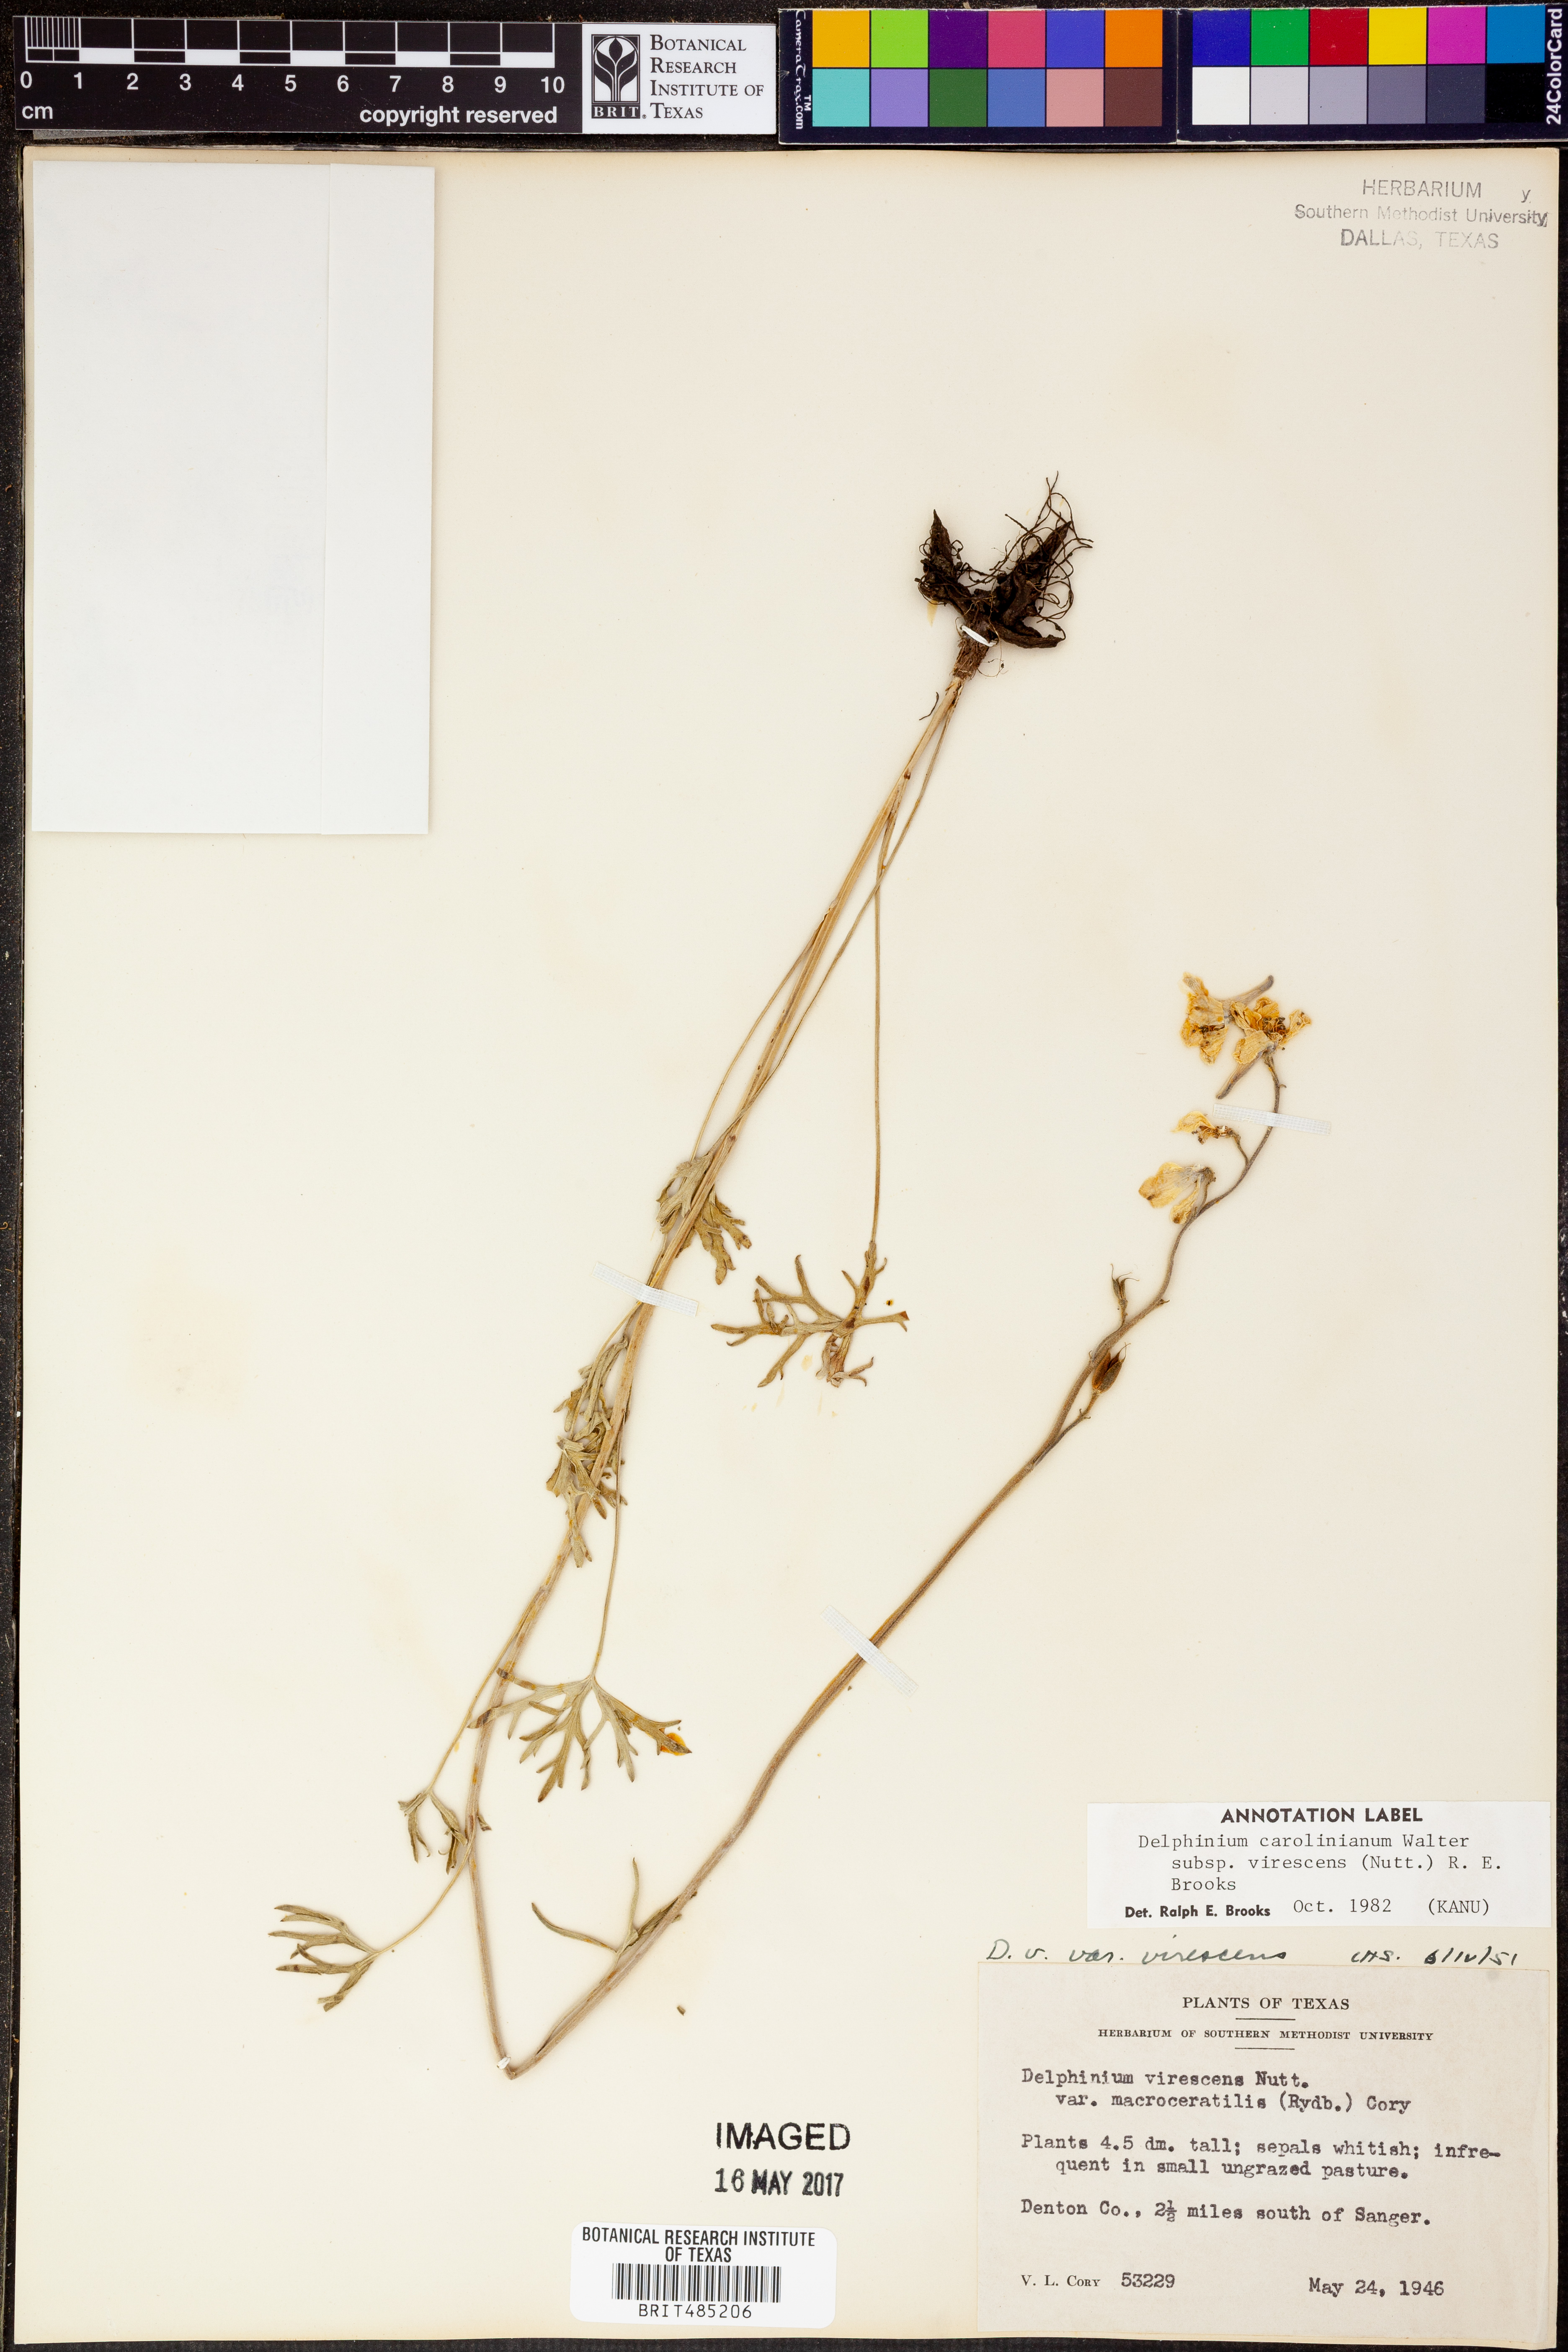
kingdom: Plantae
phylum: Tracheophyta
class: Magnoliopsida
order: Ranunculales
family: Ranunculaceae
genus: Delphinium
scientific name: Delphinium carolinianum
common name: Carolina larkspur
